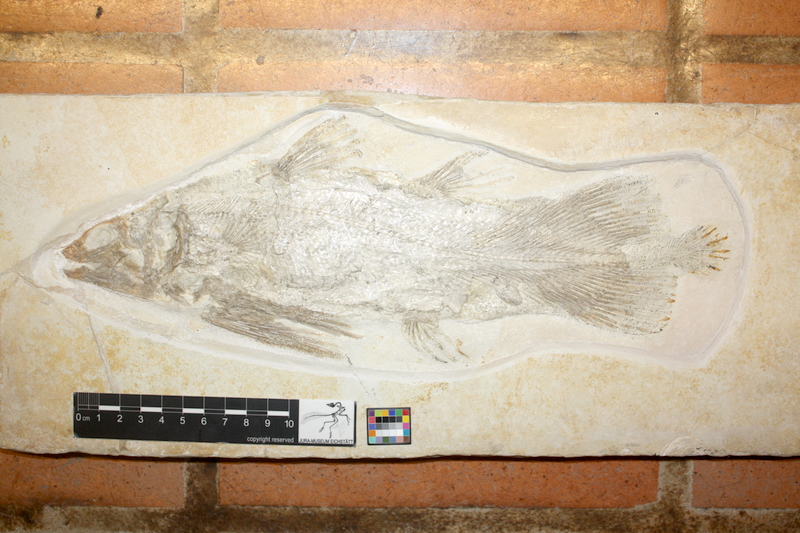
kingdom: Animalia
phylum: Chordata
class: Coelacanthi
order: Coelacanthiformes
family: Laugiidae
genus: Coccoderma
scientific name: Coccoderma suevicum
